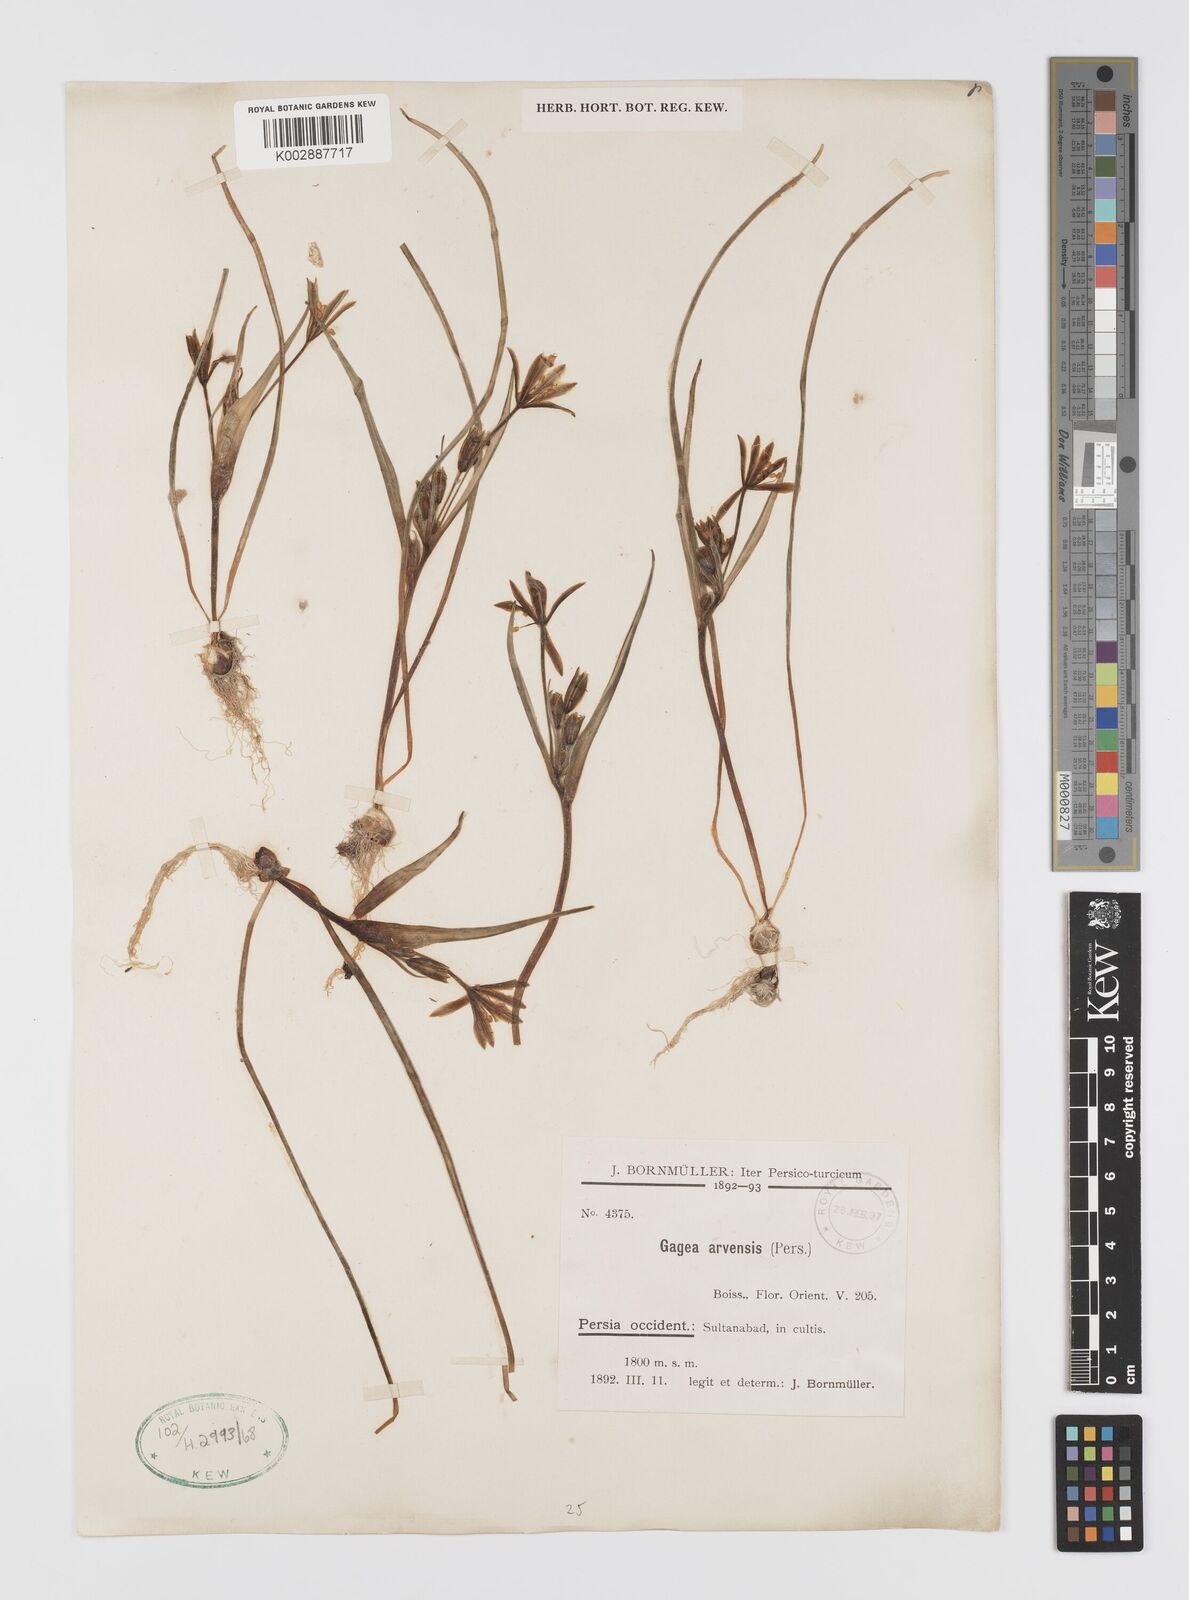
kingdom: Plantae
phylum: Tracheophyta
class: Liliopsida
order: Liliales
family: Liliaceae
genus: Gagea
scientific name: Gagea minima
